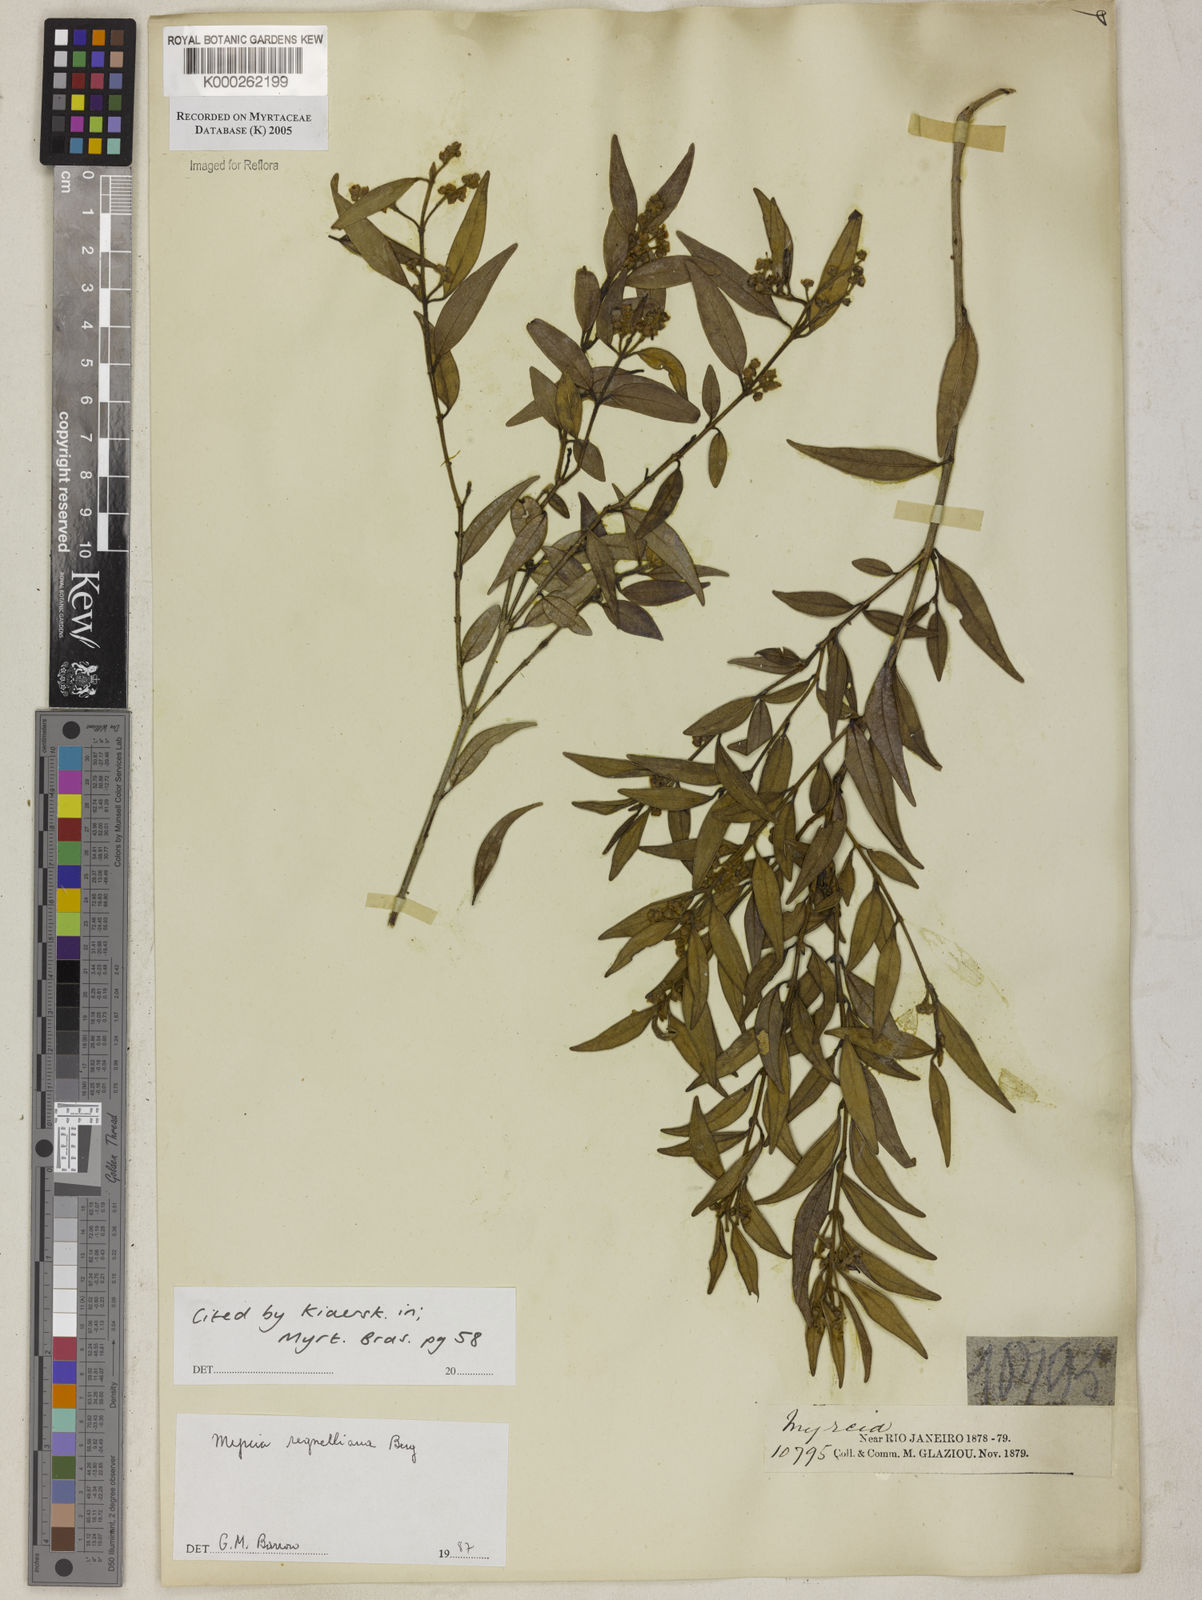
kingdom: Plantae
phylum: Tracheophyta
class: Magnoliopsida
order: Myrtales
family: Myrtaceae
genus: Myrcia
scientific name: Myrcia regnelliana
